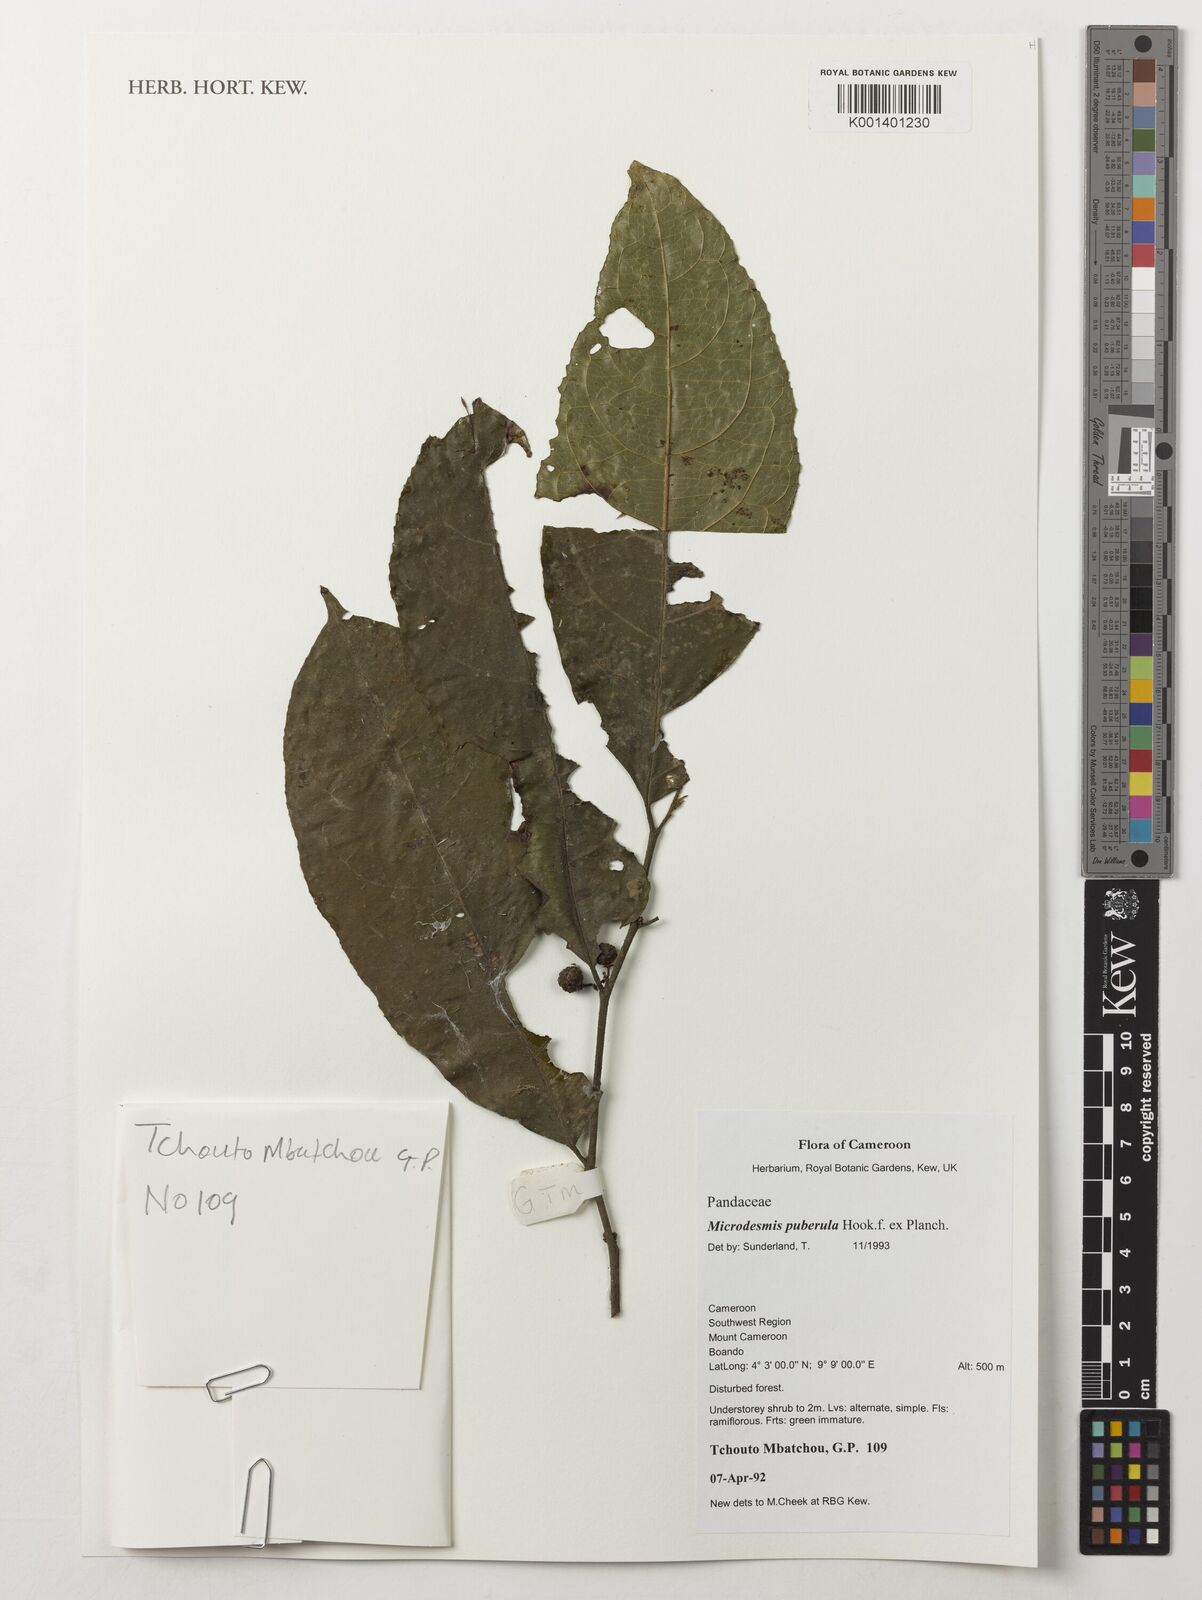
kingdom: Plantae
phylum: Tracheophyta
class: Magnoliopsida
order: Malpighiales
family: Pandaceae
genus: Microdesmis
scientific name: Microdesmis puberula
